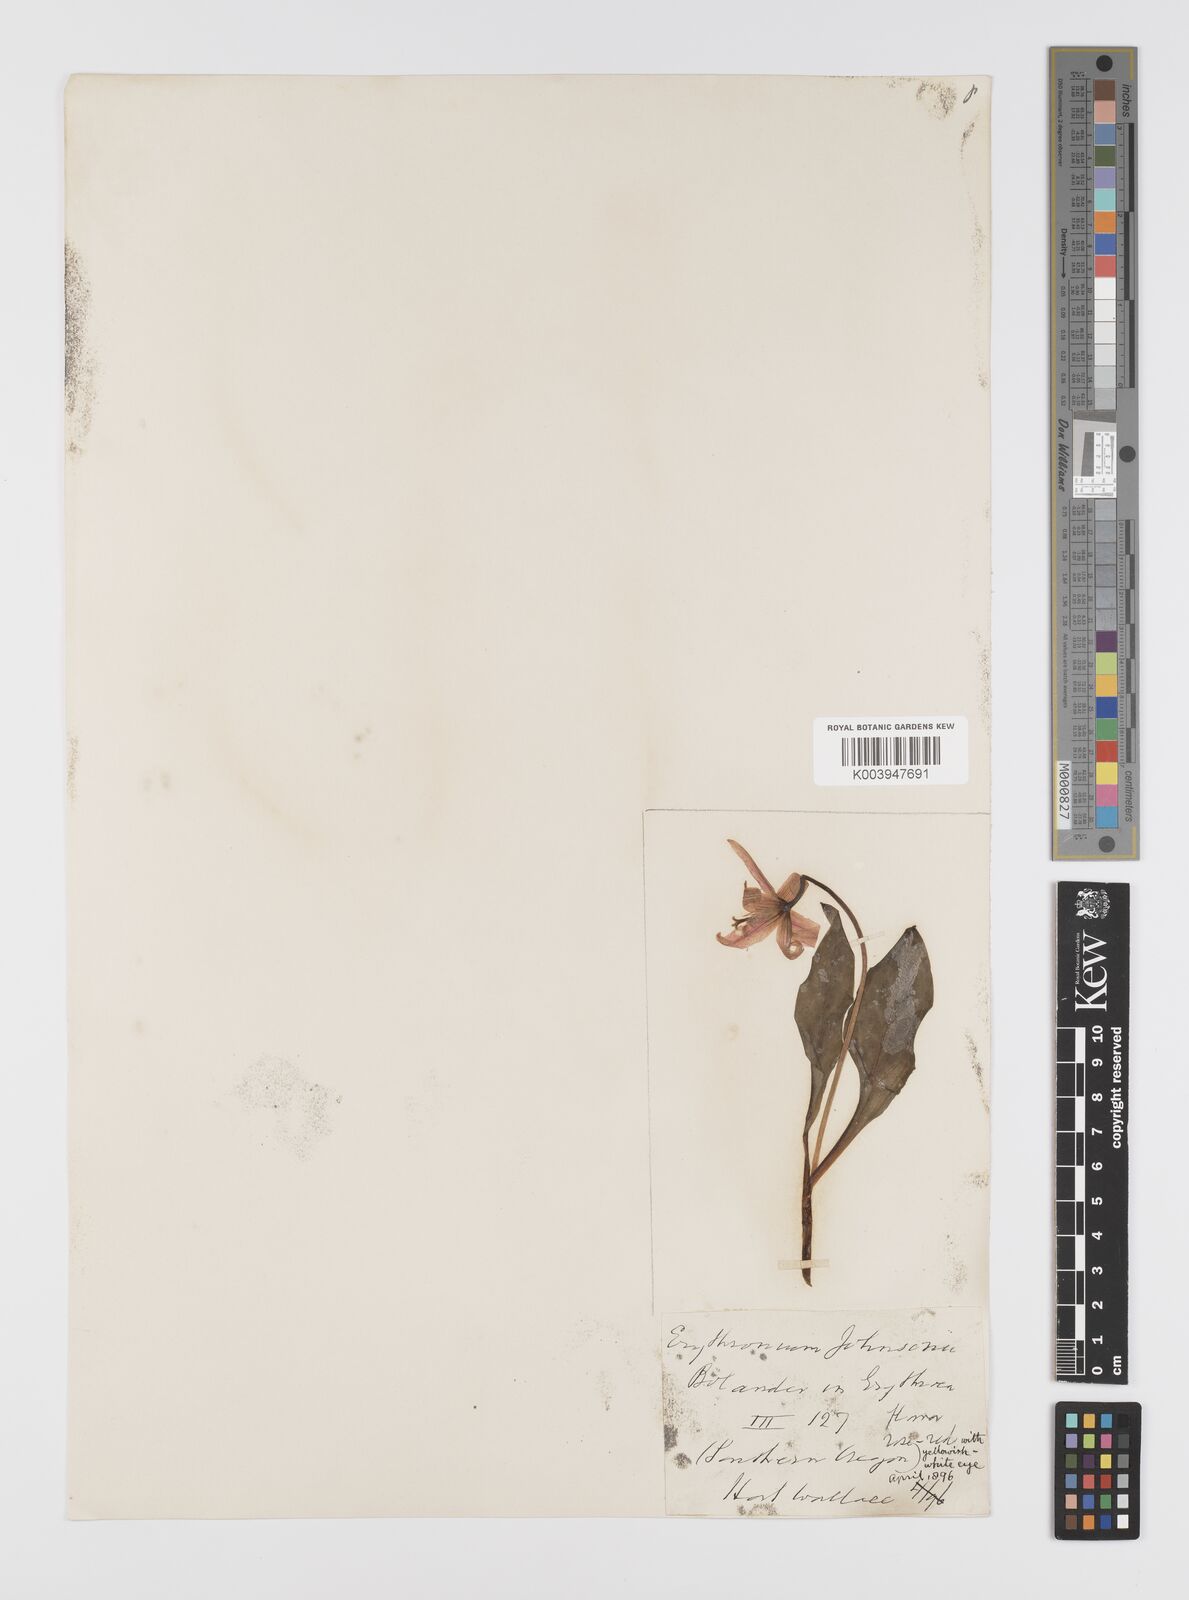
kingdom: Plantae
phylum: Tracheophyta
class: Liliopsida
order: Liliales
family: Liliaceae
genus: Erythronium
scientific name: Erythronium purpurascens
